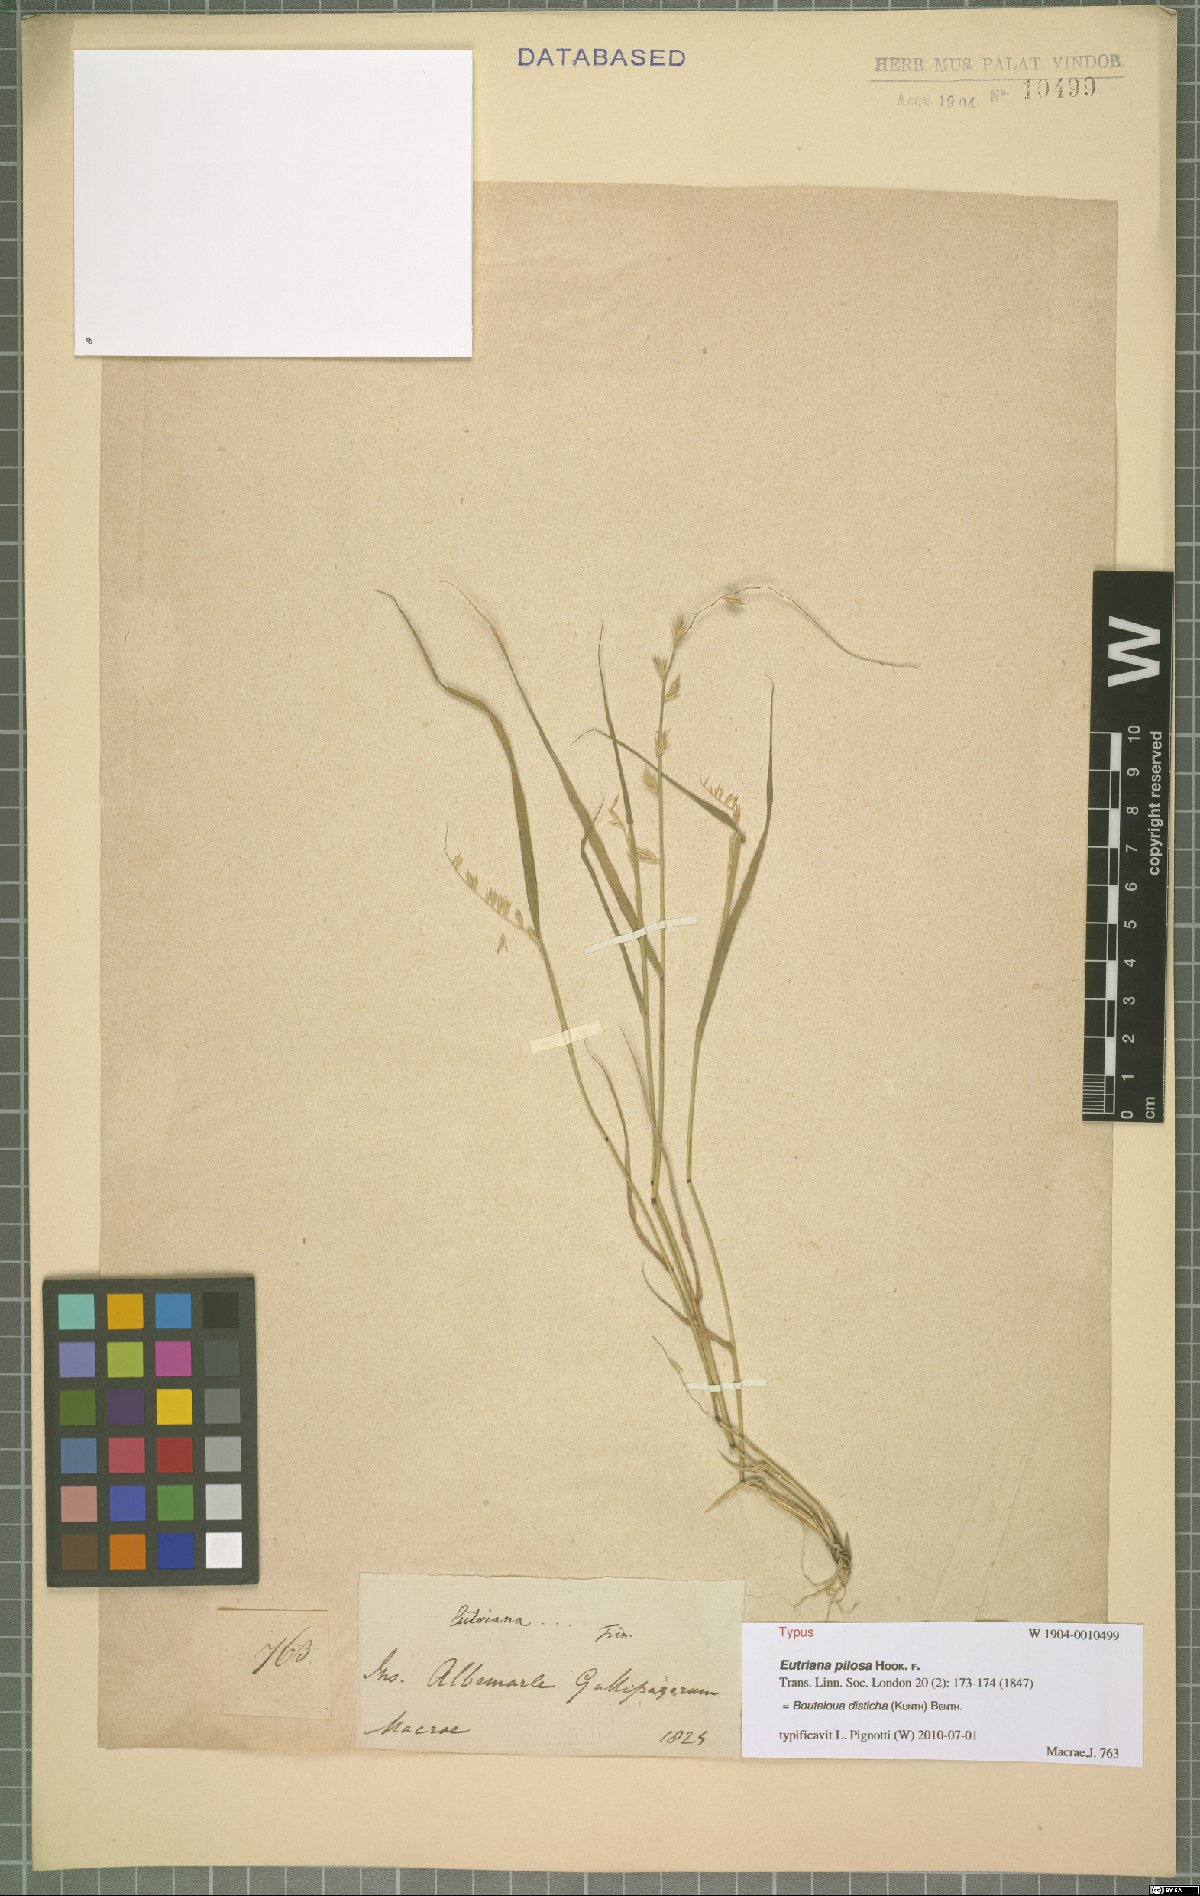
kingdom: Plantae
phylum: Tracheophyta
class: Liliopsida
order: Poales
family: Poaceae
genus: Bouteloua
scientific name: Bouteloua disticha
